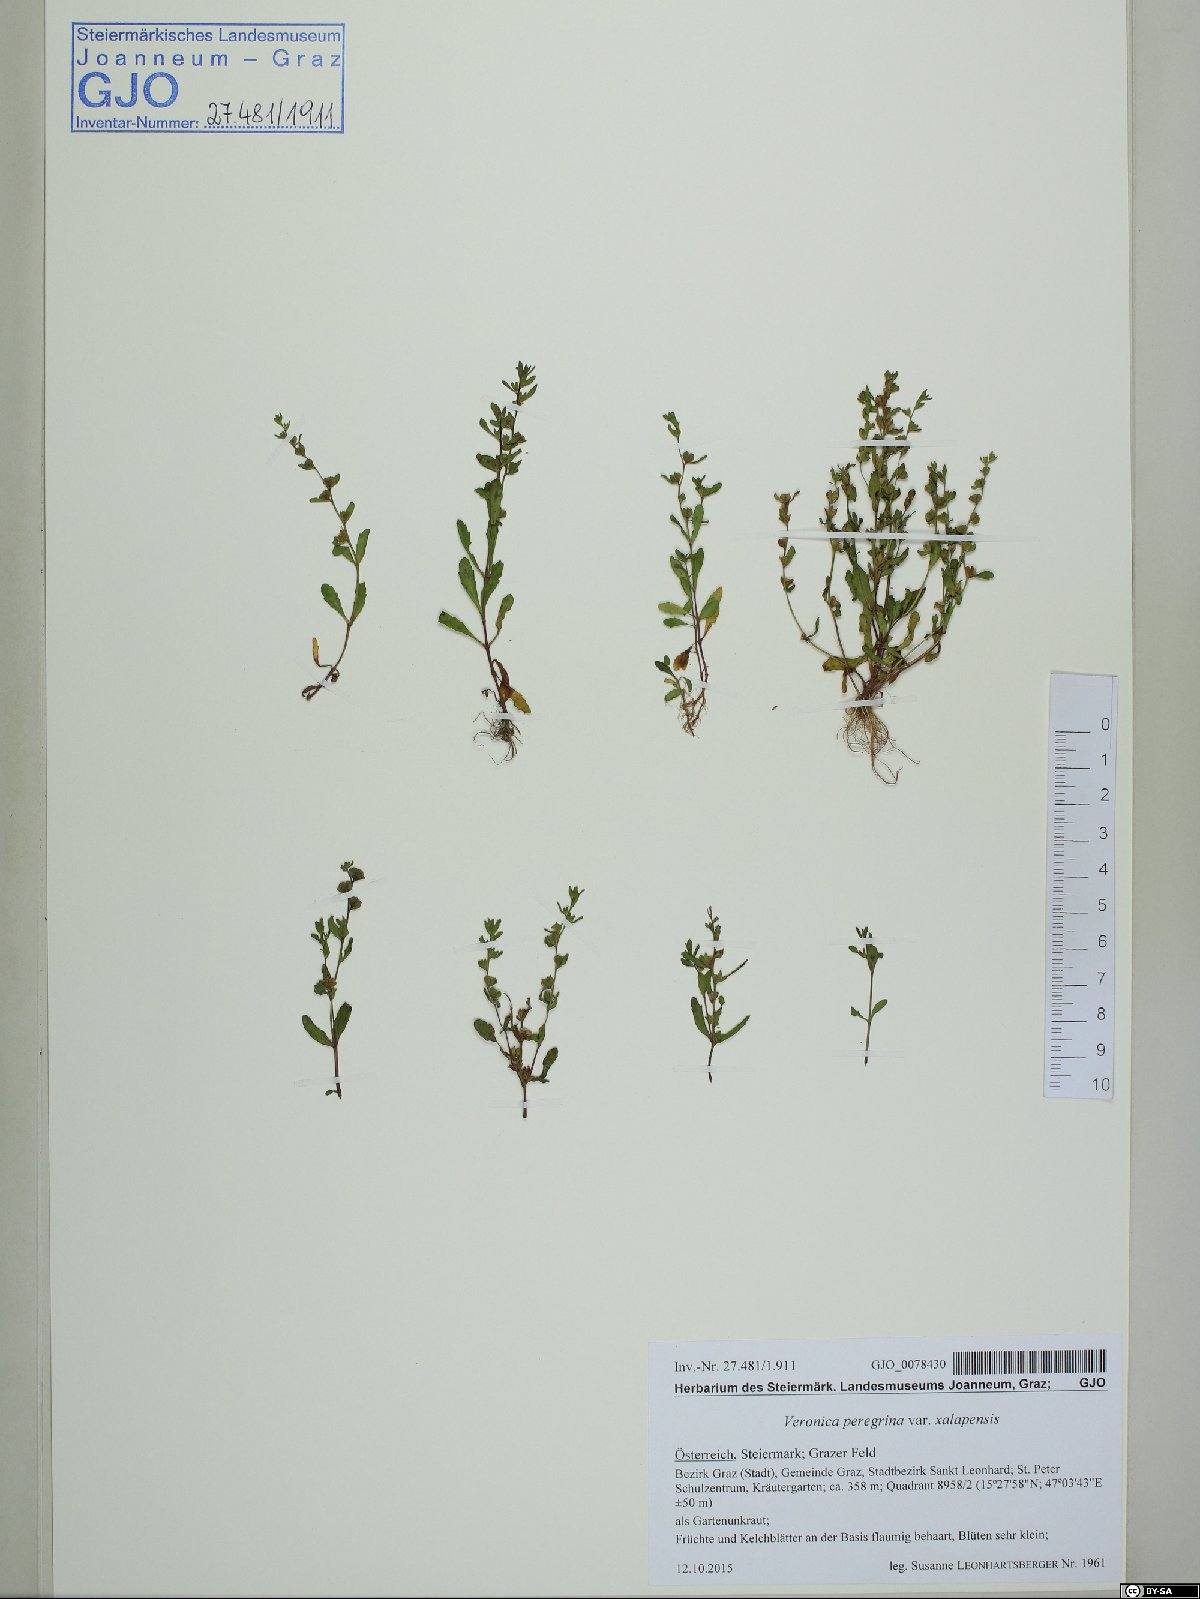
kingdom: Plantae
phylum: Tracheophyta
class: Magnoliopsida
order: Lamiales
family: Plantaginaceae
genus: Veronica
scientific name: Veronica peregrina
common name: Neckweed
